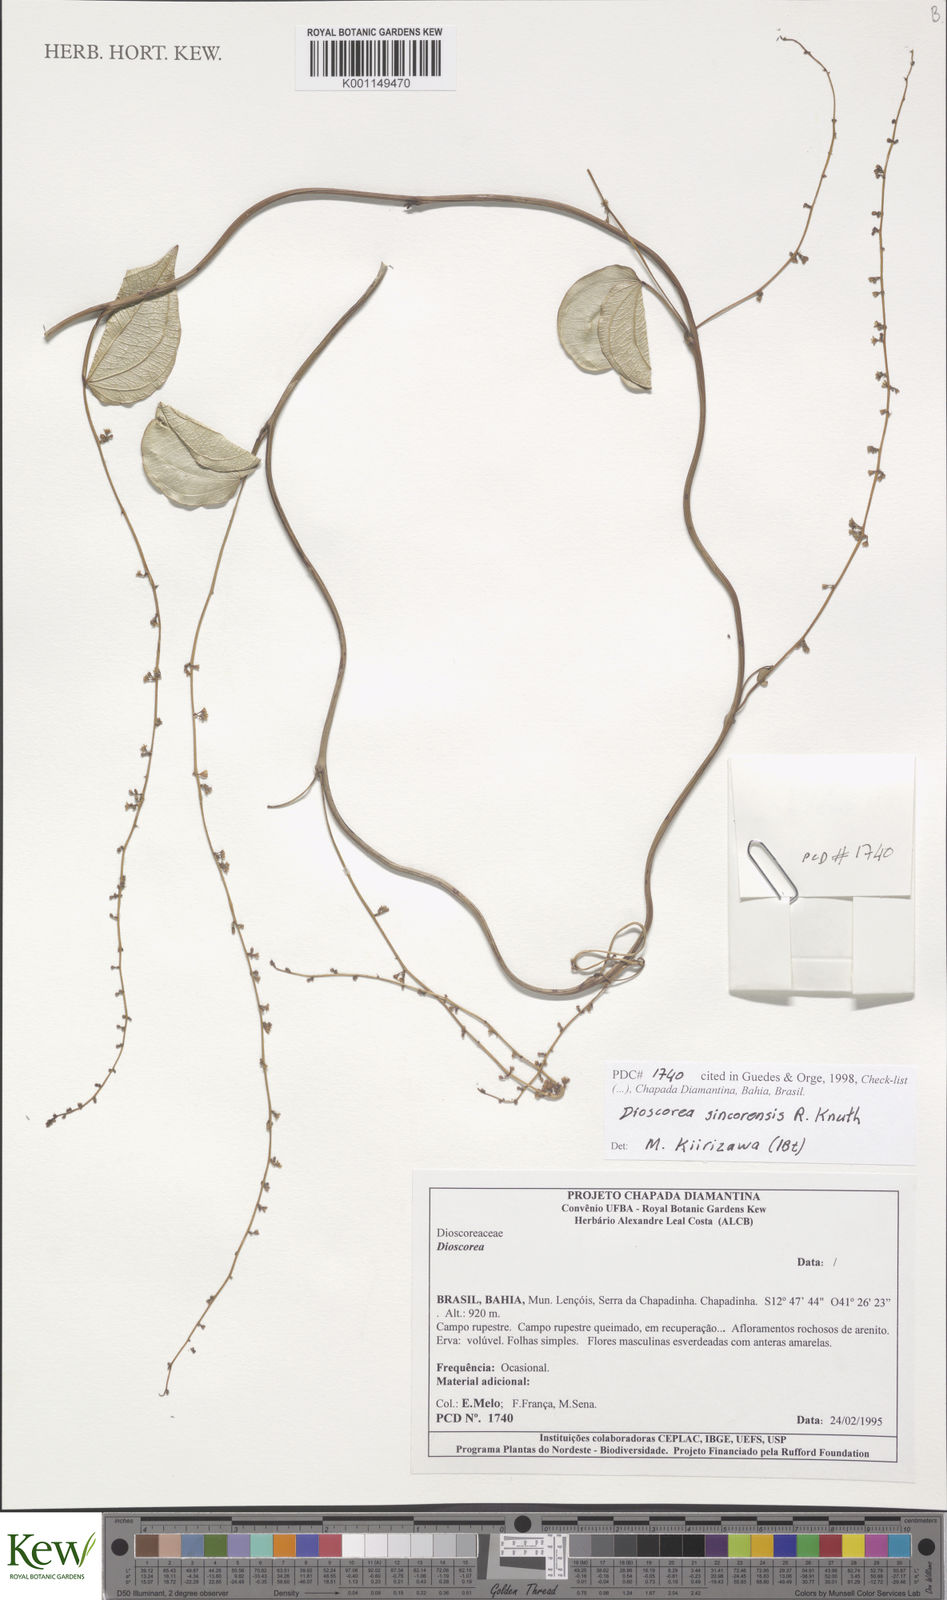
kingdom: Plantae
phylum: Tracheophyta
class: Liliopsida
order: Dioscoreales
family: Dioscoreaceae
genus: Dioscorea
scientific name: Dioscorea sincorensis
